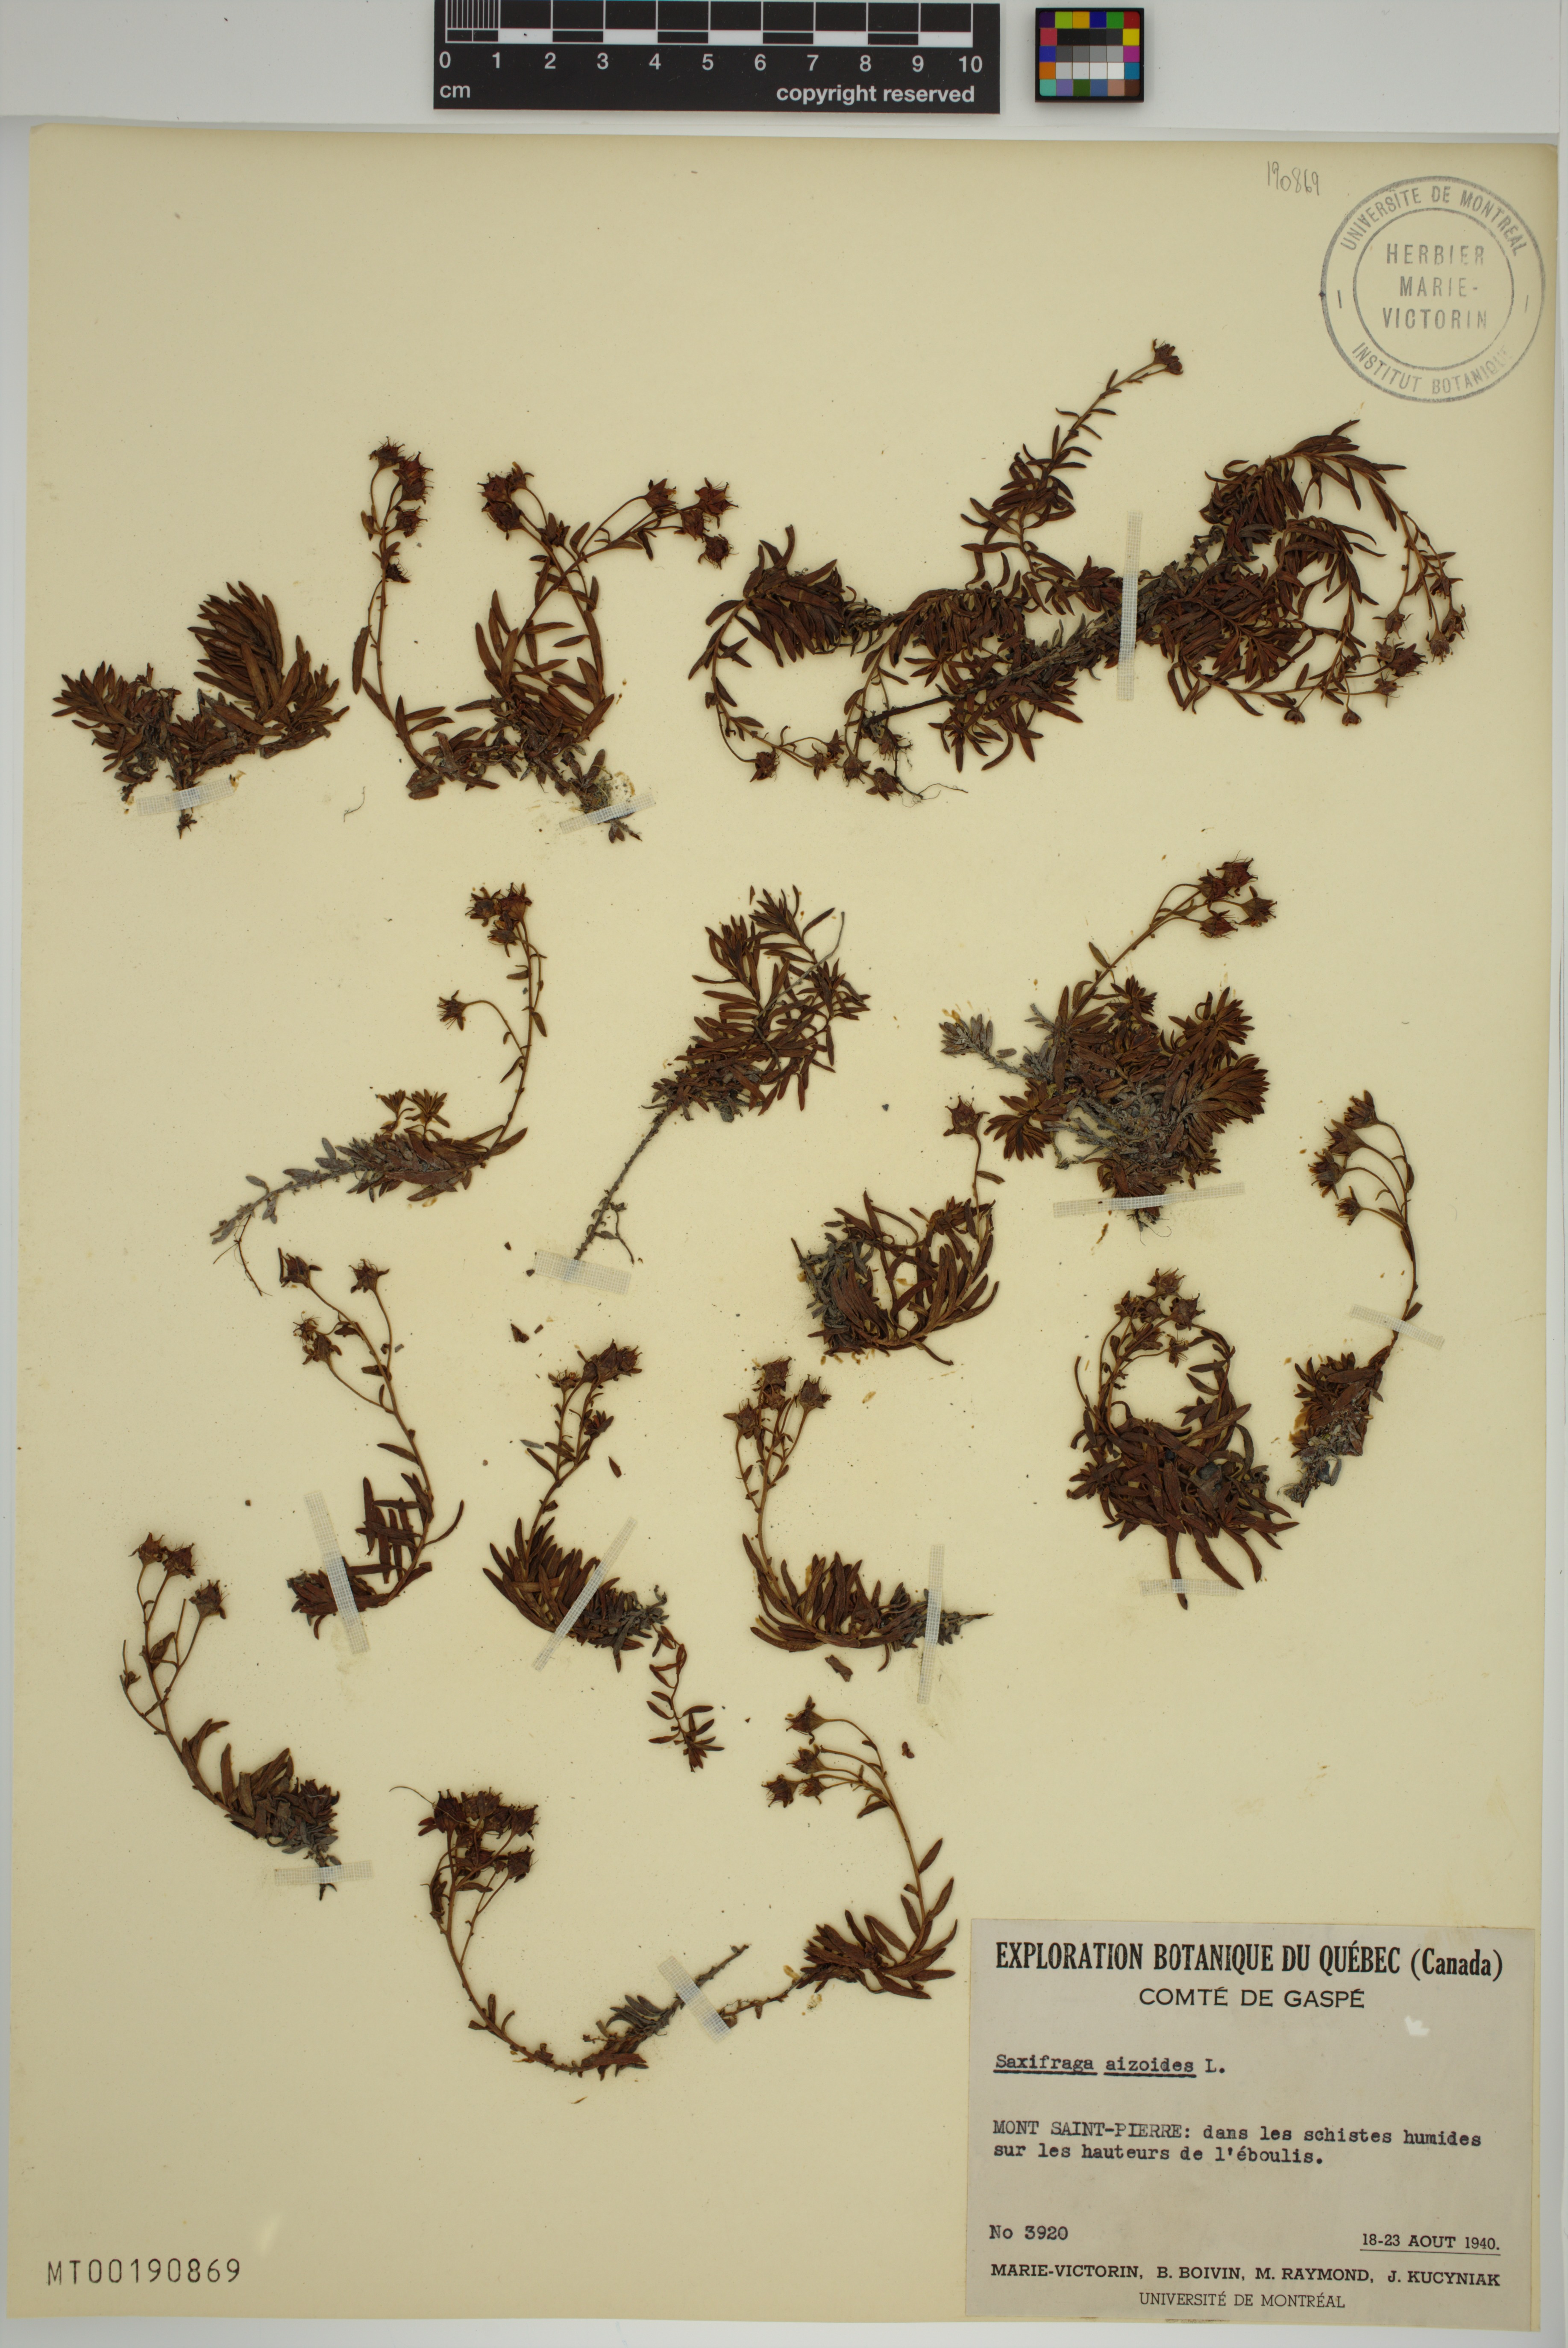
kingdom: Plantae
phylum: Tracheophyta
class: Magnoliopsida
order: Saxifragales
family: Saxifragaceae
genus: Saxifraga
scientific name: Saxifraga aizoides
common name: Yellow mountain saxifrage
